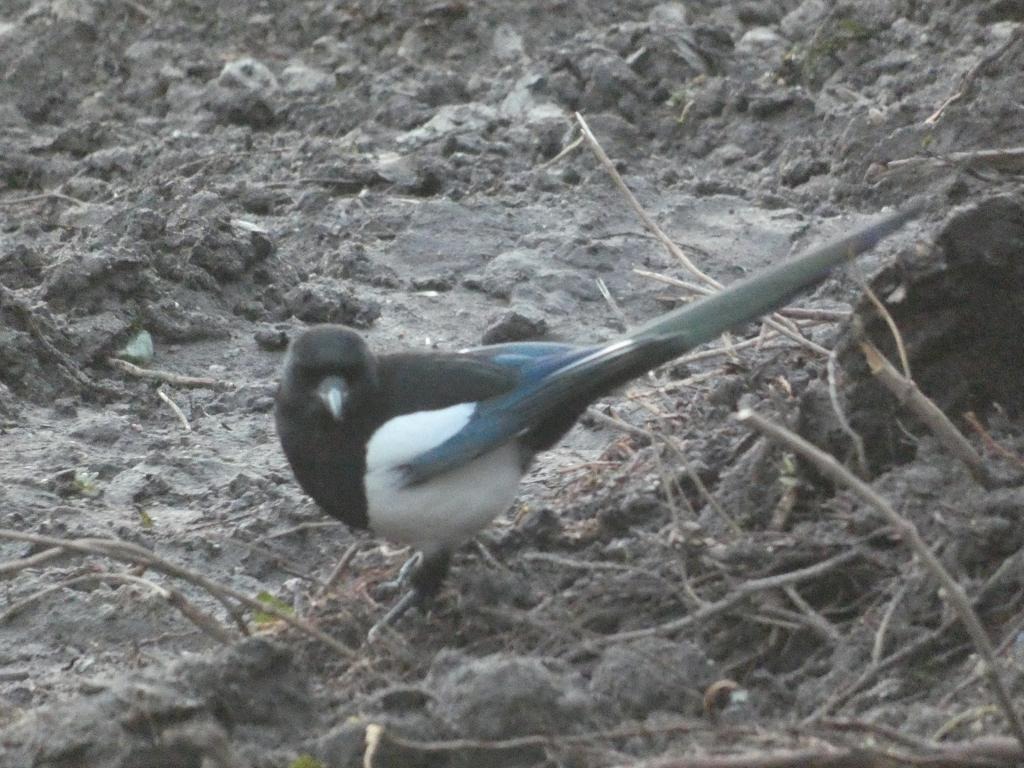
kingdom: Animalia
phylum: Chordata
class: Aves
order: Passeriformes
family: Corvidae
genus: Pica
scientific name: Pica pica
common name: Husskade
